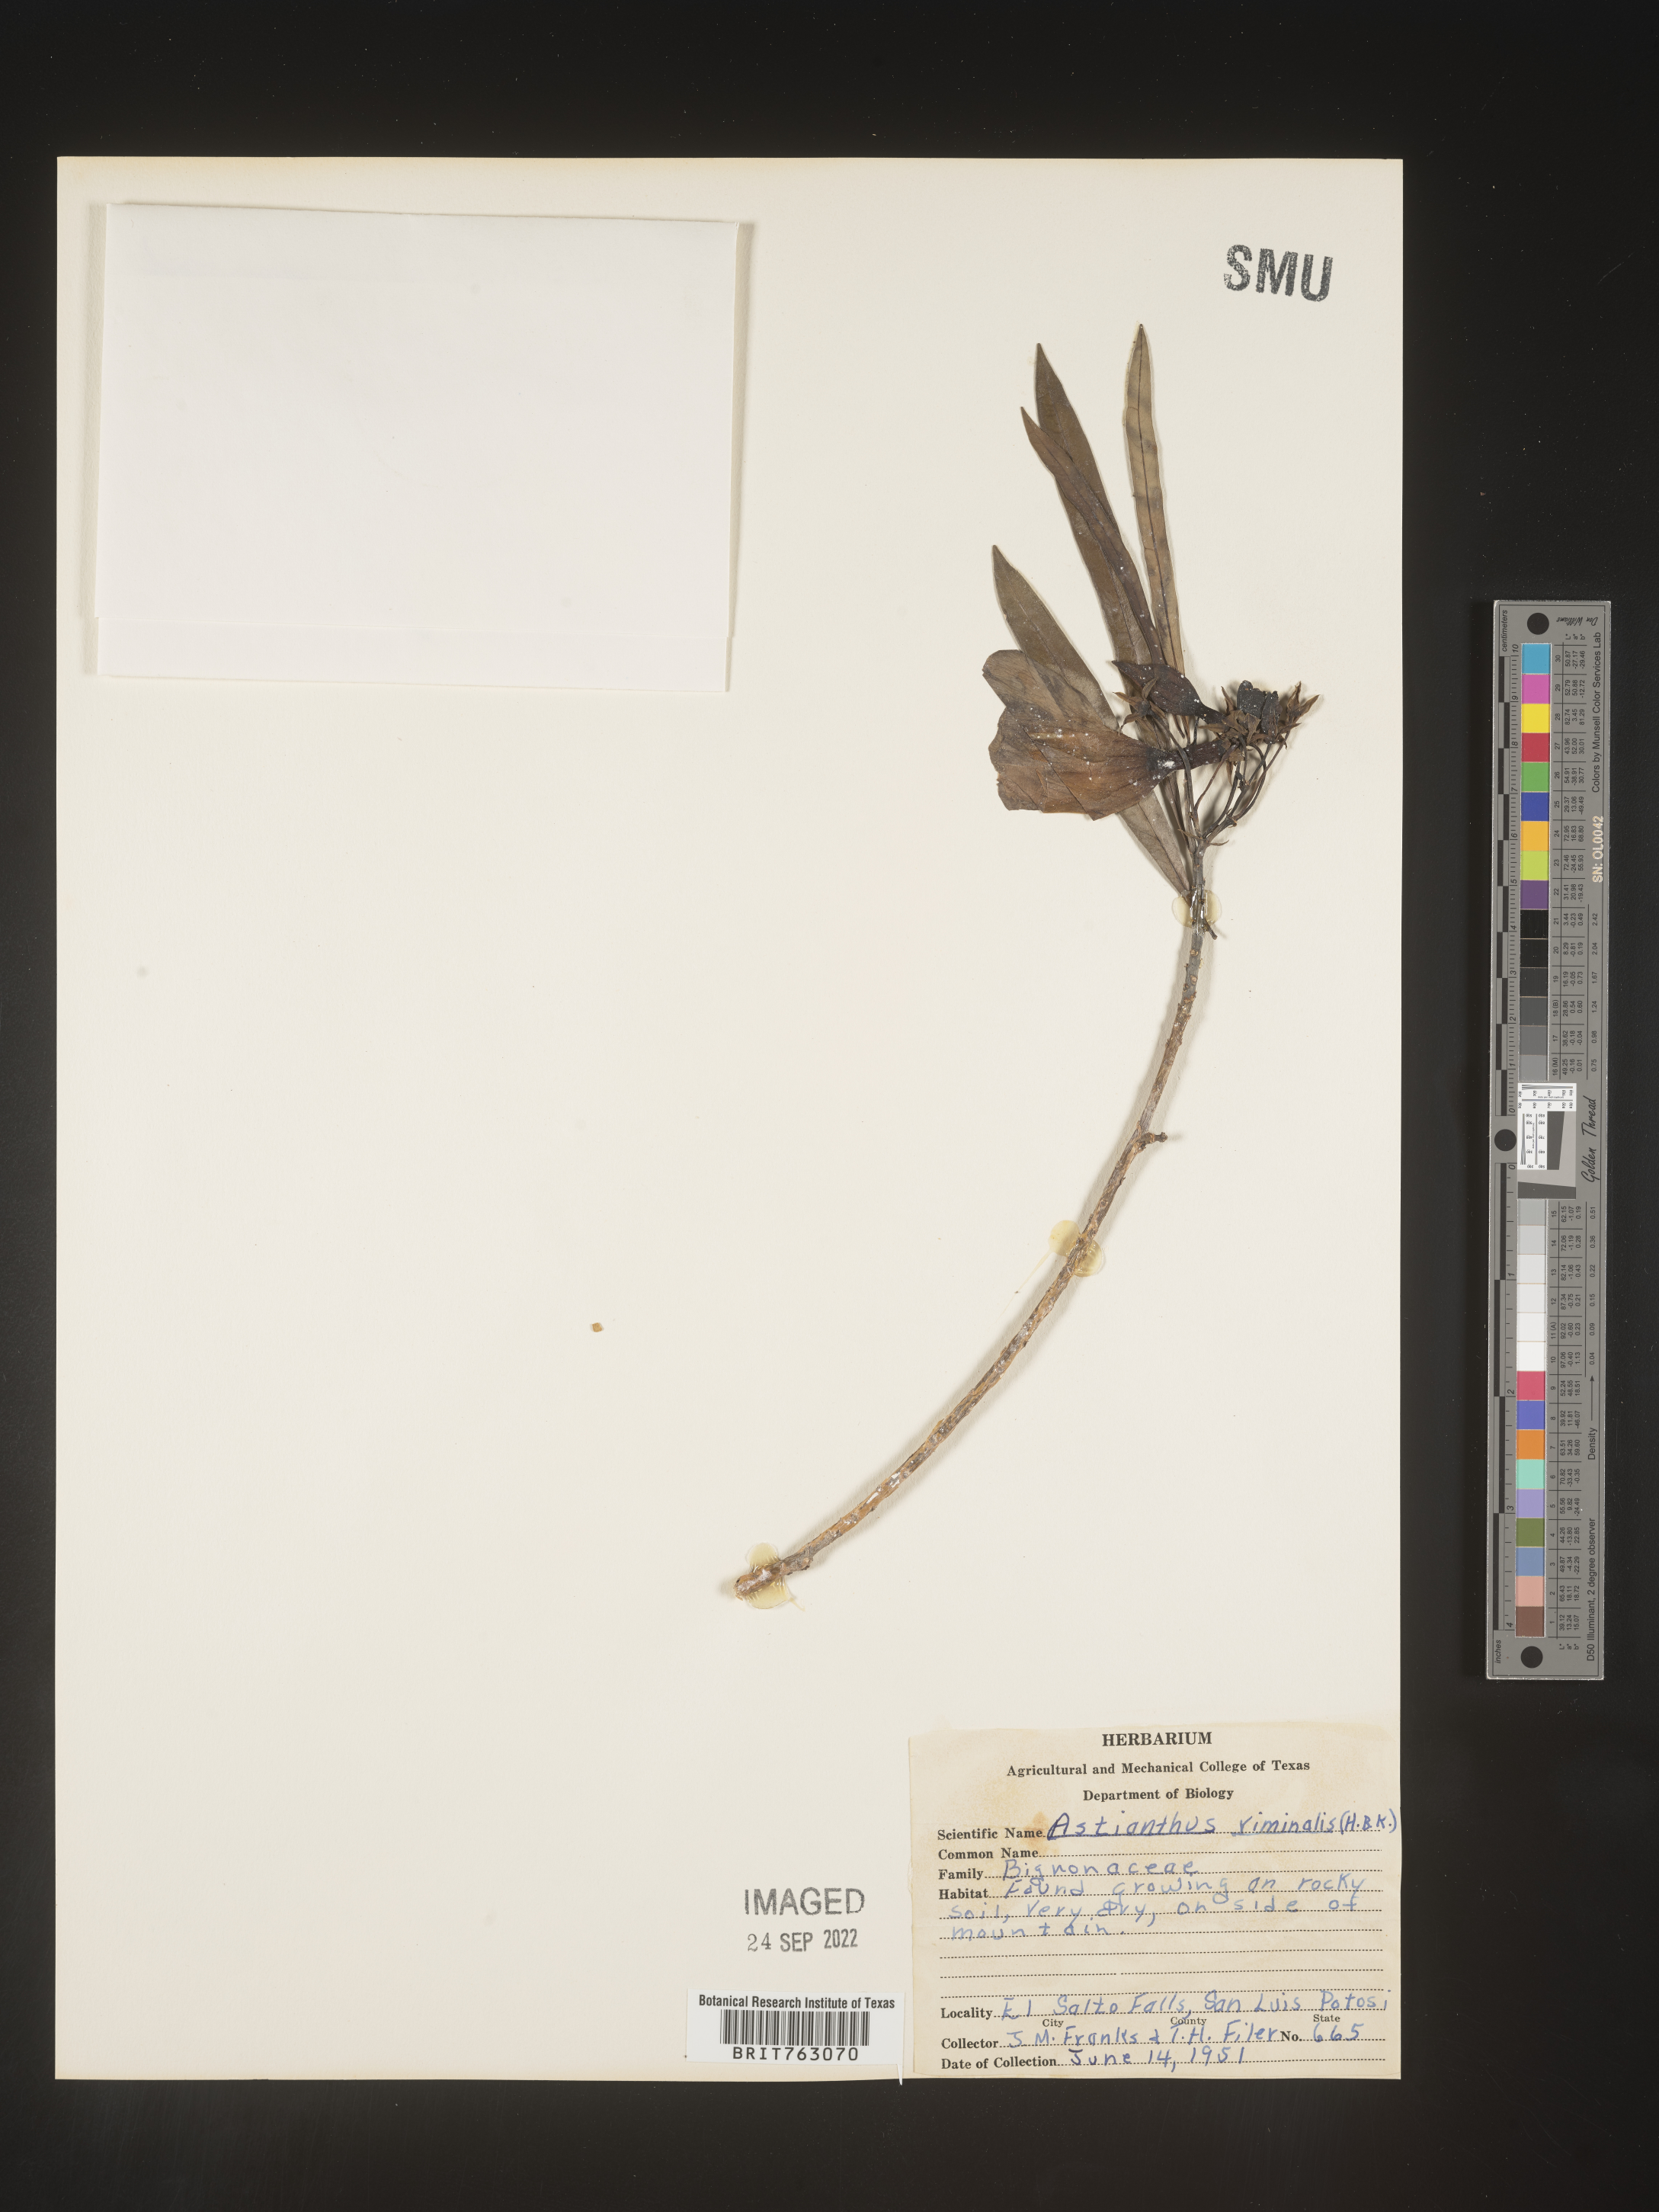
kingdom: Plantae
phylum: Tracheophyta
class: Magnoliopsida
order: Lamiales
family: Bignoniaceae
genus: Astianthus
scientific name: Astianthus
